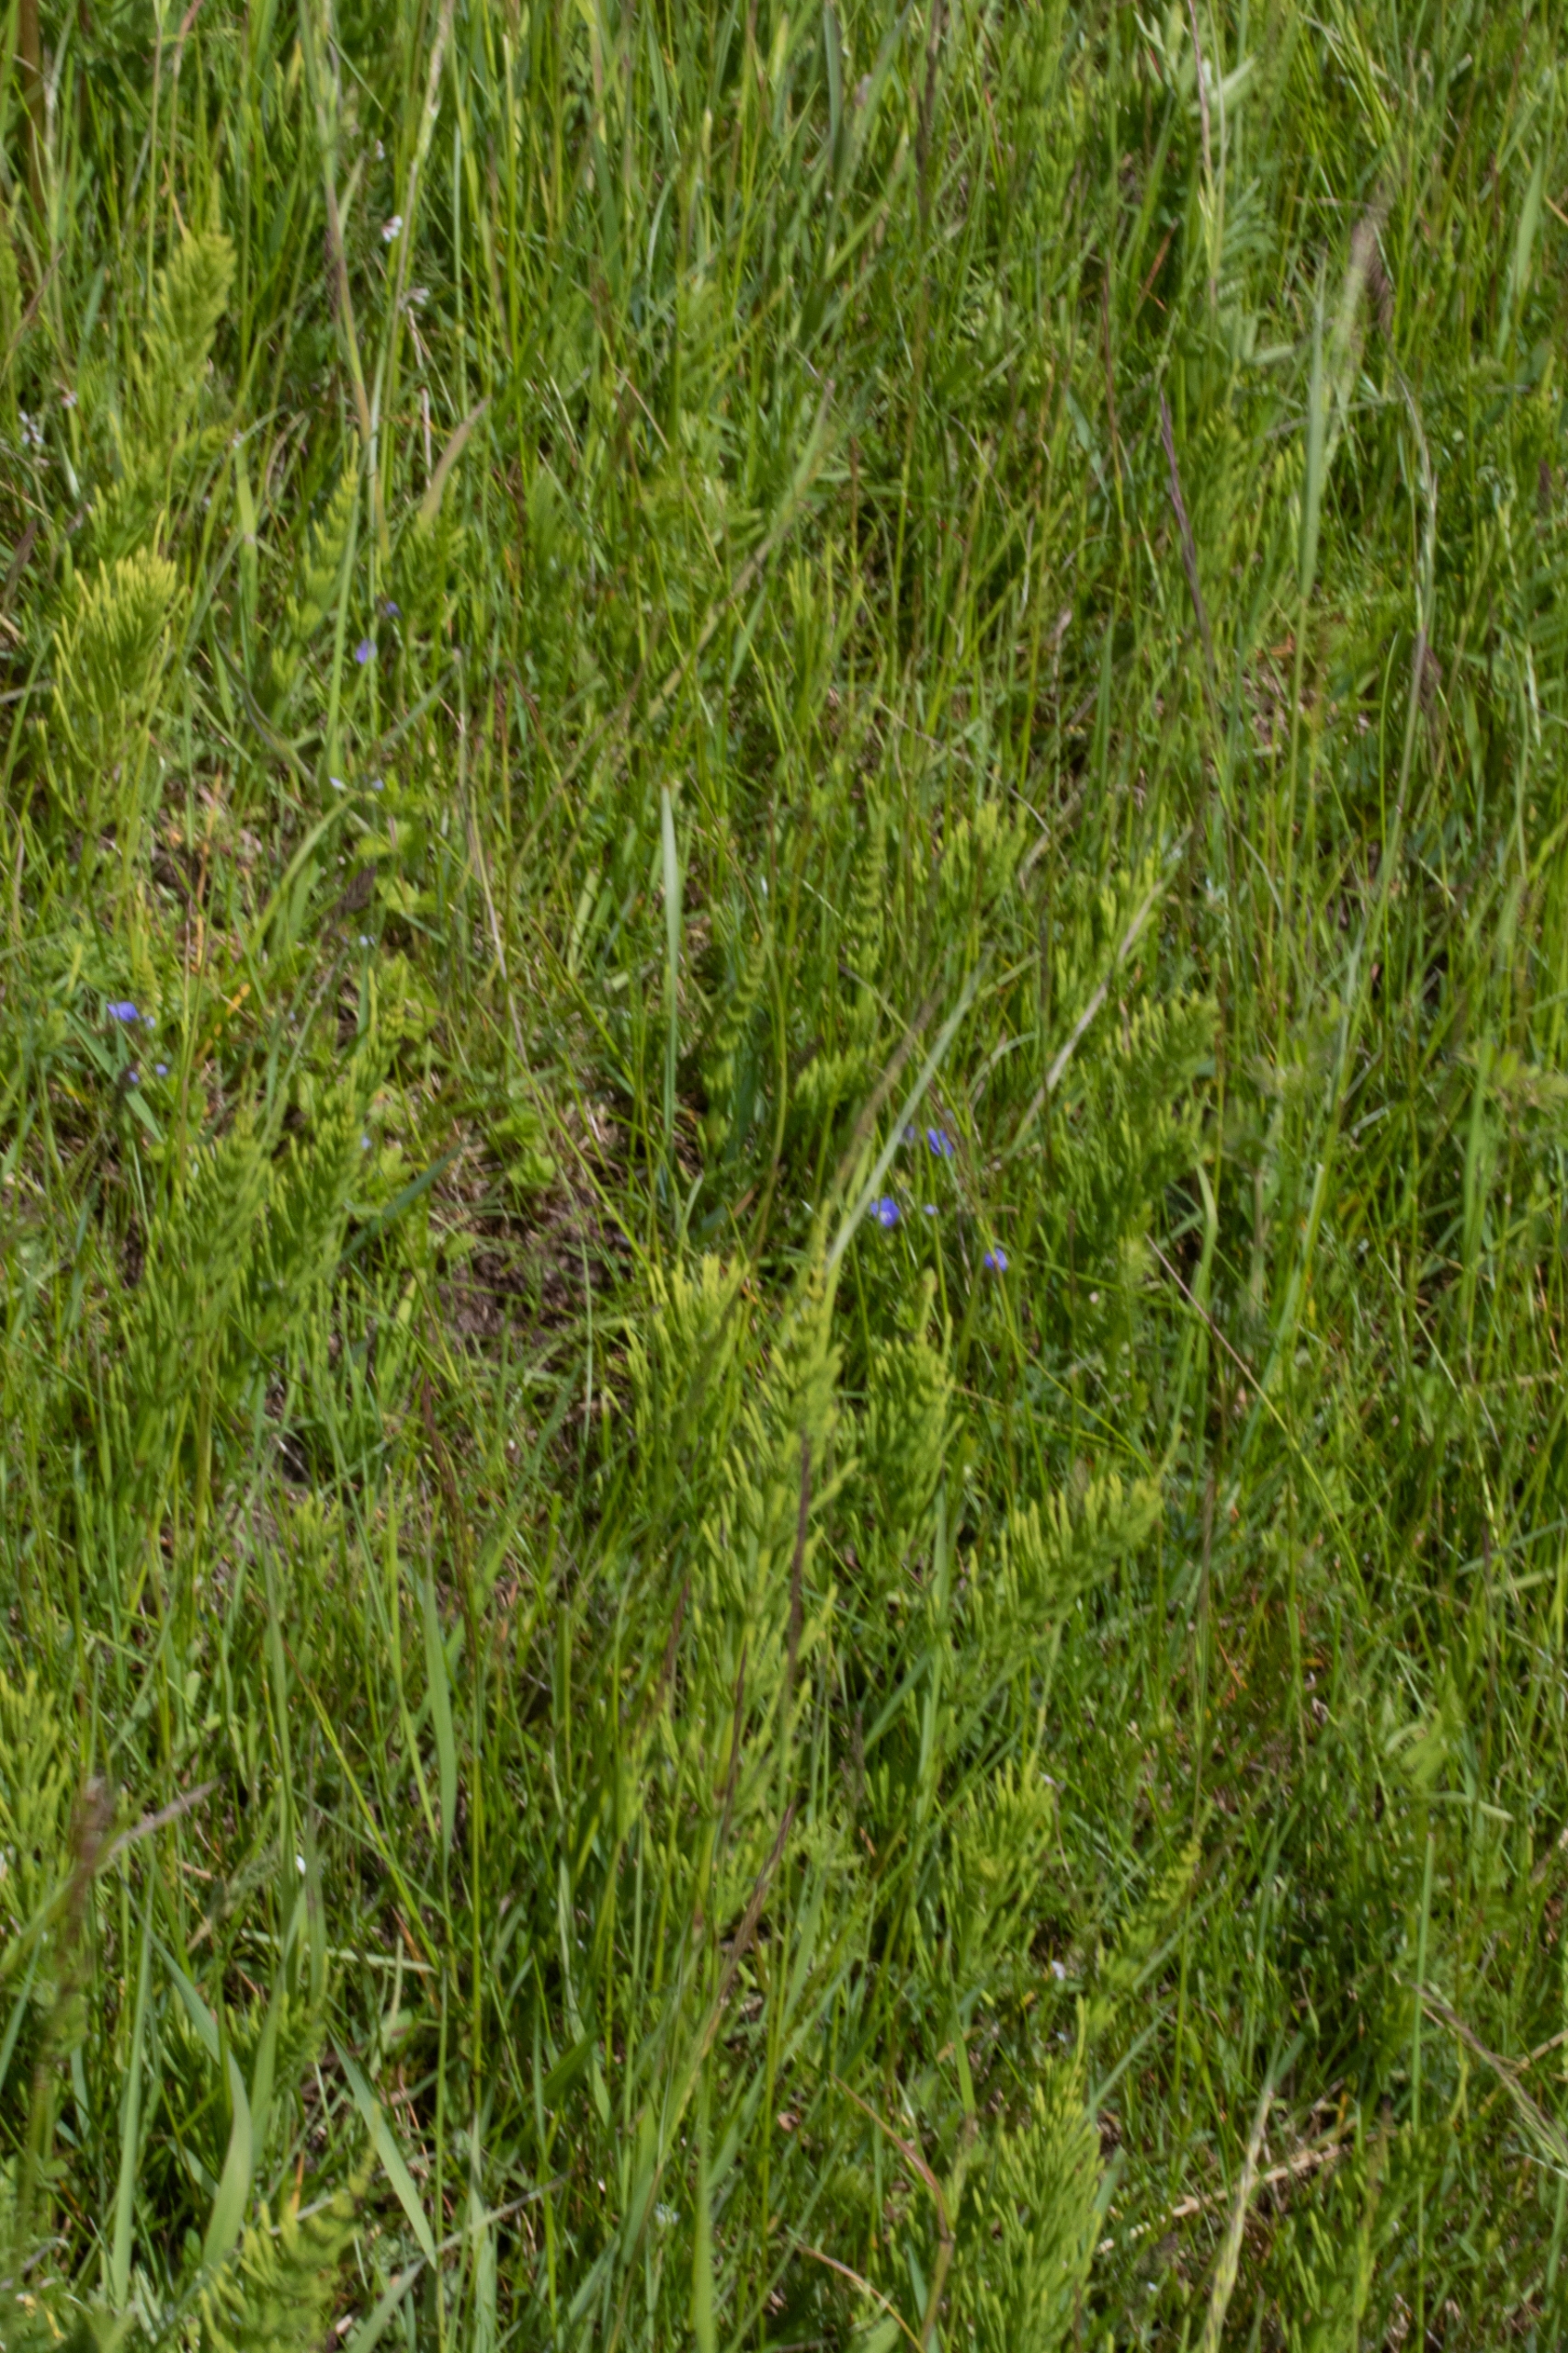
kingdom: Plantae
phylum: Tracheophyta
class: Polypodiopsida
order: Equisetales
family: Equisetaceae
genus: Equisetum
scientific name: Equisetum arvense
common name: Ager-padderok
